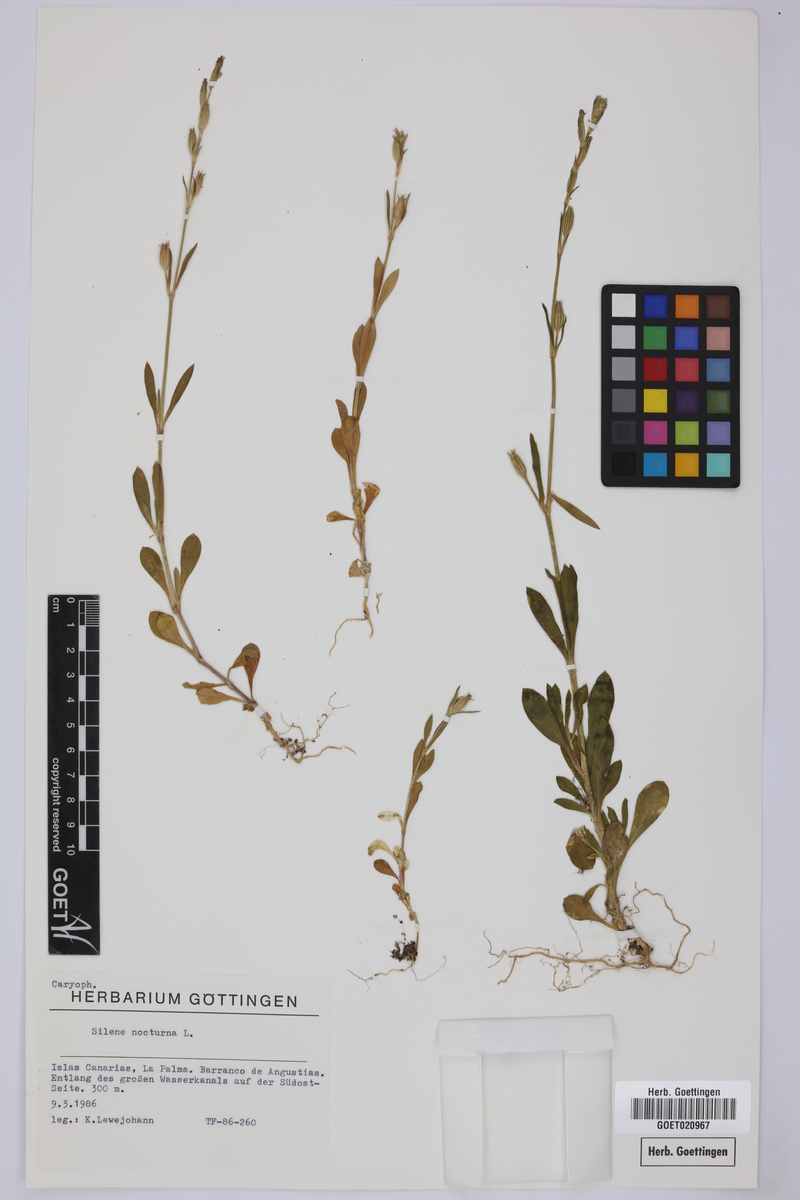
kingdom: Plantae
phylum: Tracheophyta
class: Magnoliopsida
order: Caryophyllales
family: Caryophyllaceae
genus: Silene
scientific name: Silene nocturna
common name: Mediterranean catchfly
